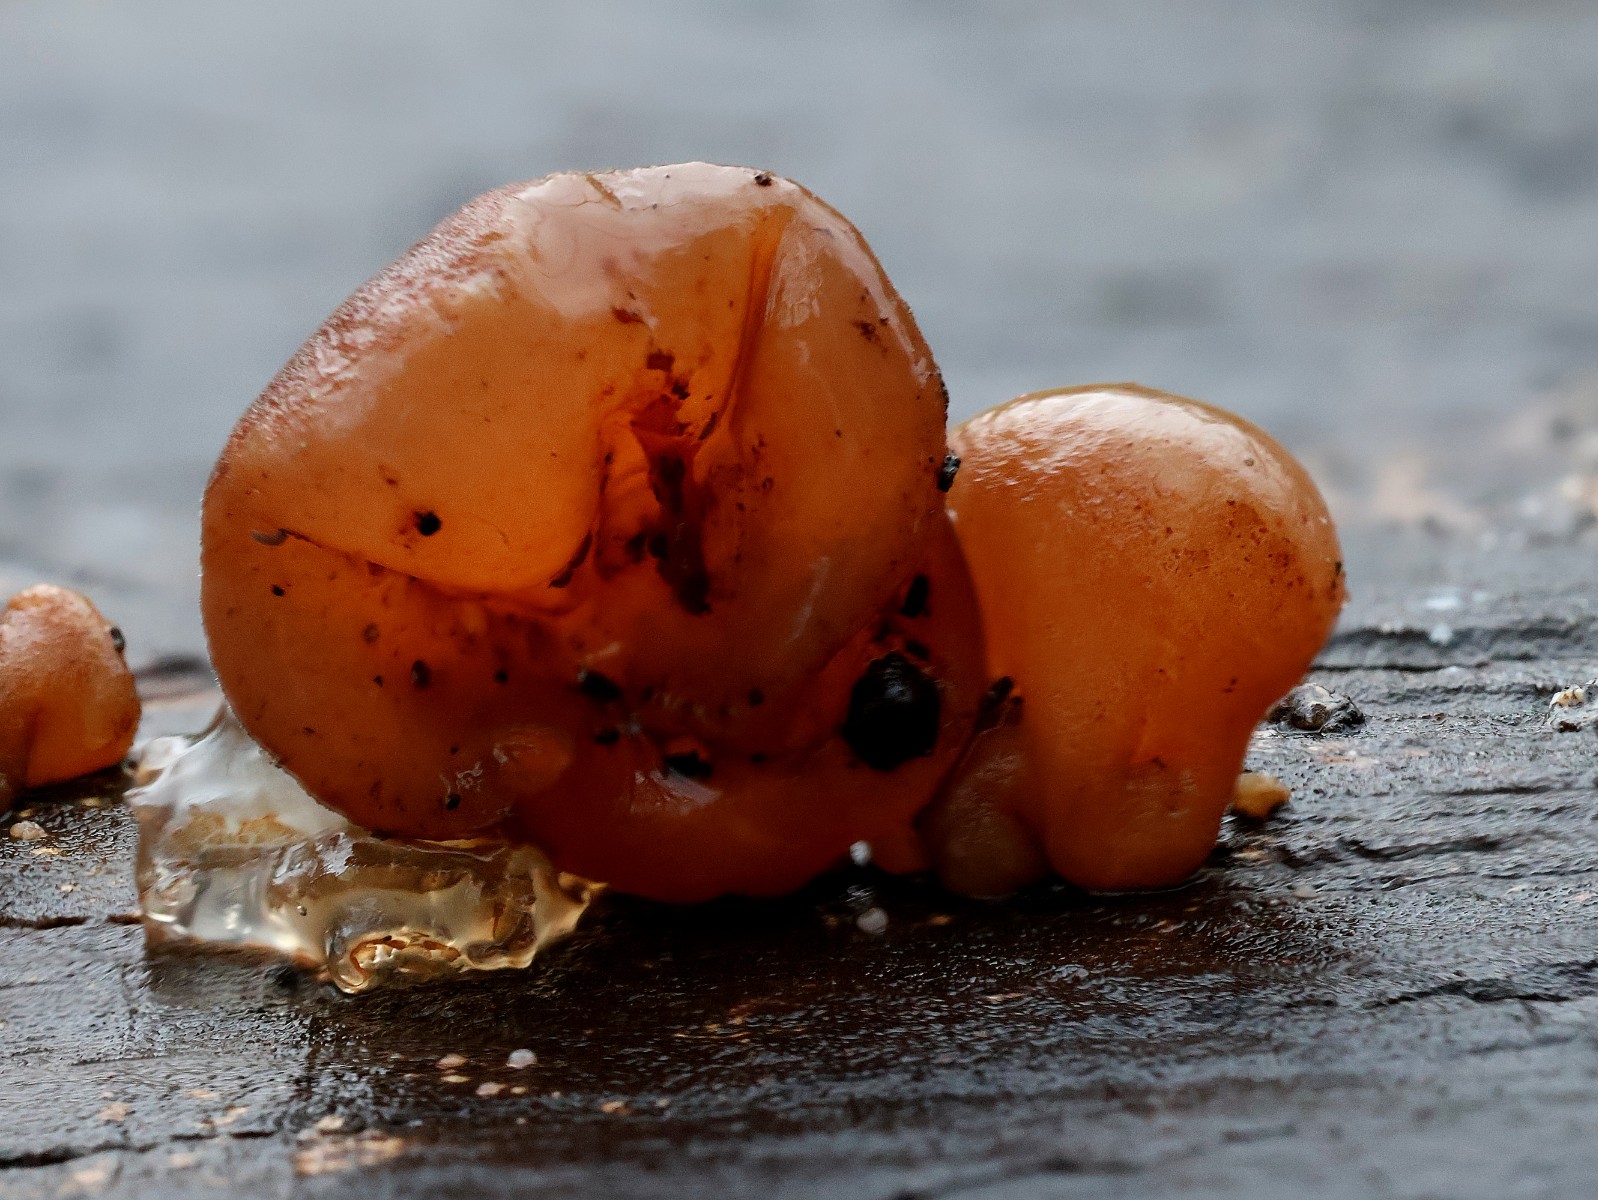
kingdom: Fungi
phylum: Basidiomycota
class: Agaricomycetes
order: Auriculariales
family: Auriculariaceae
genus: Auricularia
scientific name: Auricularia auricula-judae
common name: almindelig judasøre
